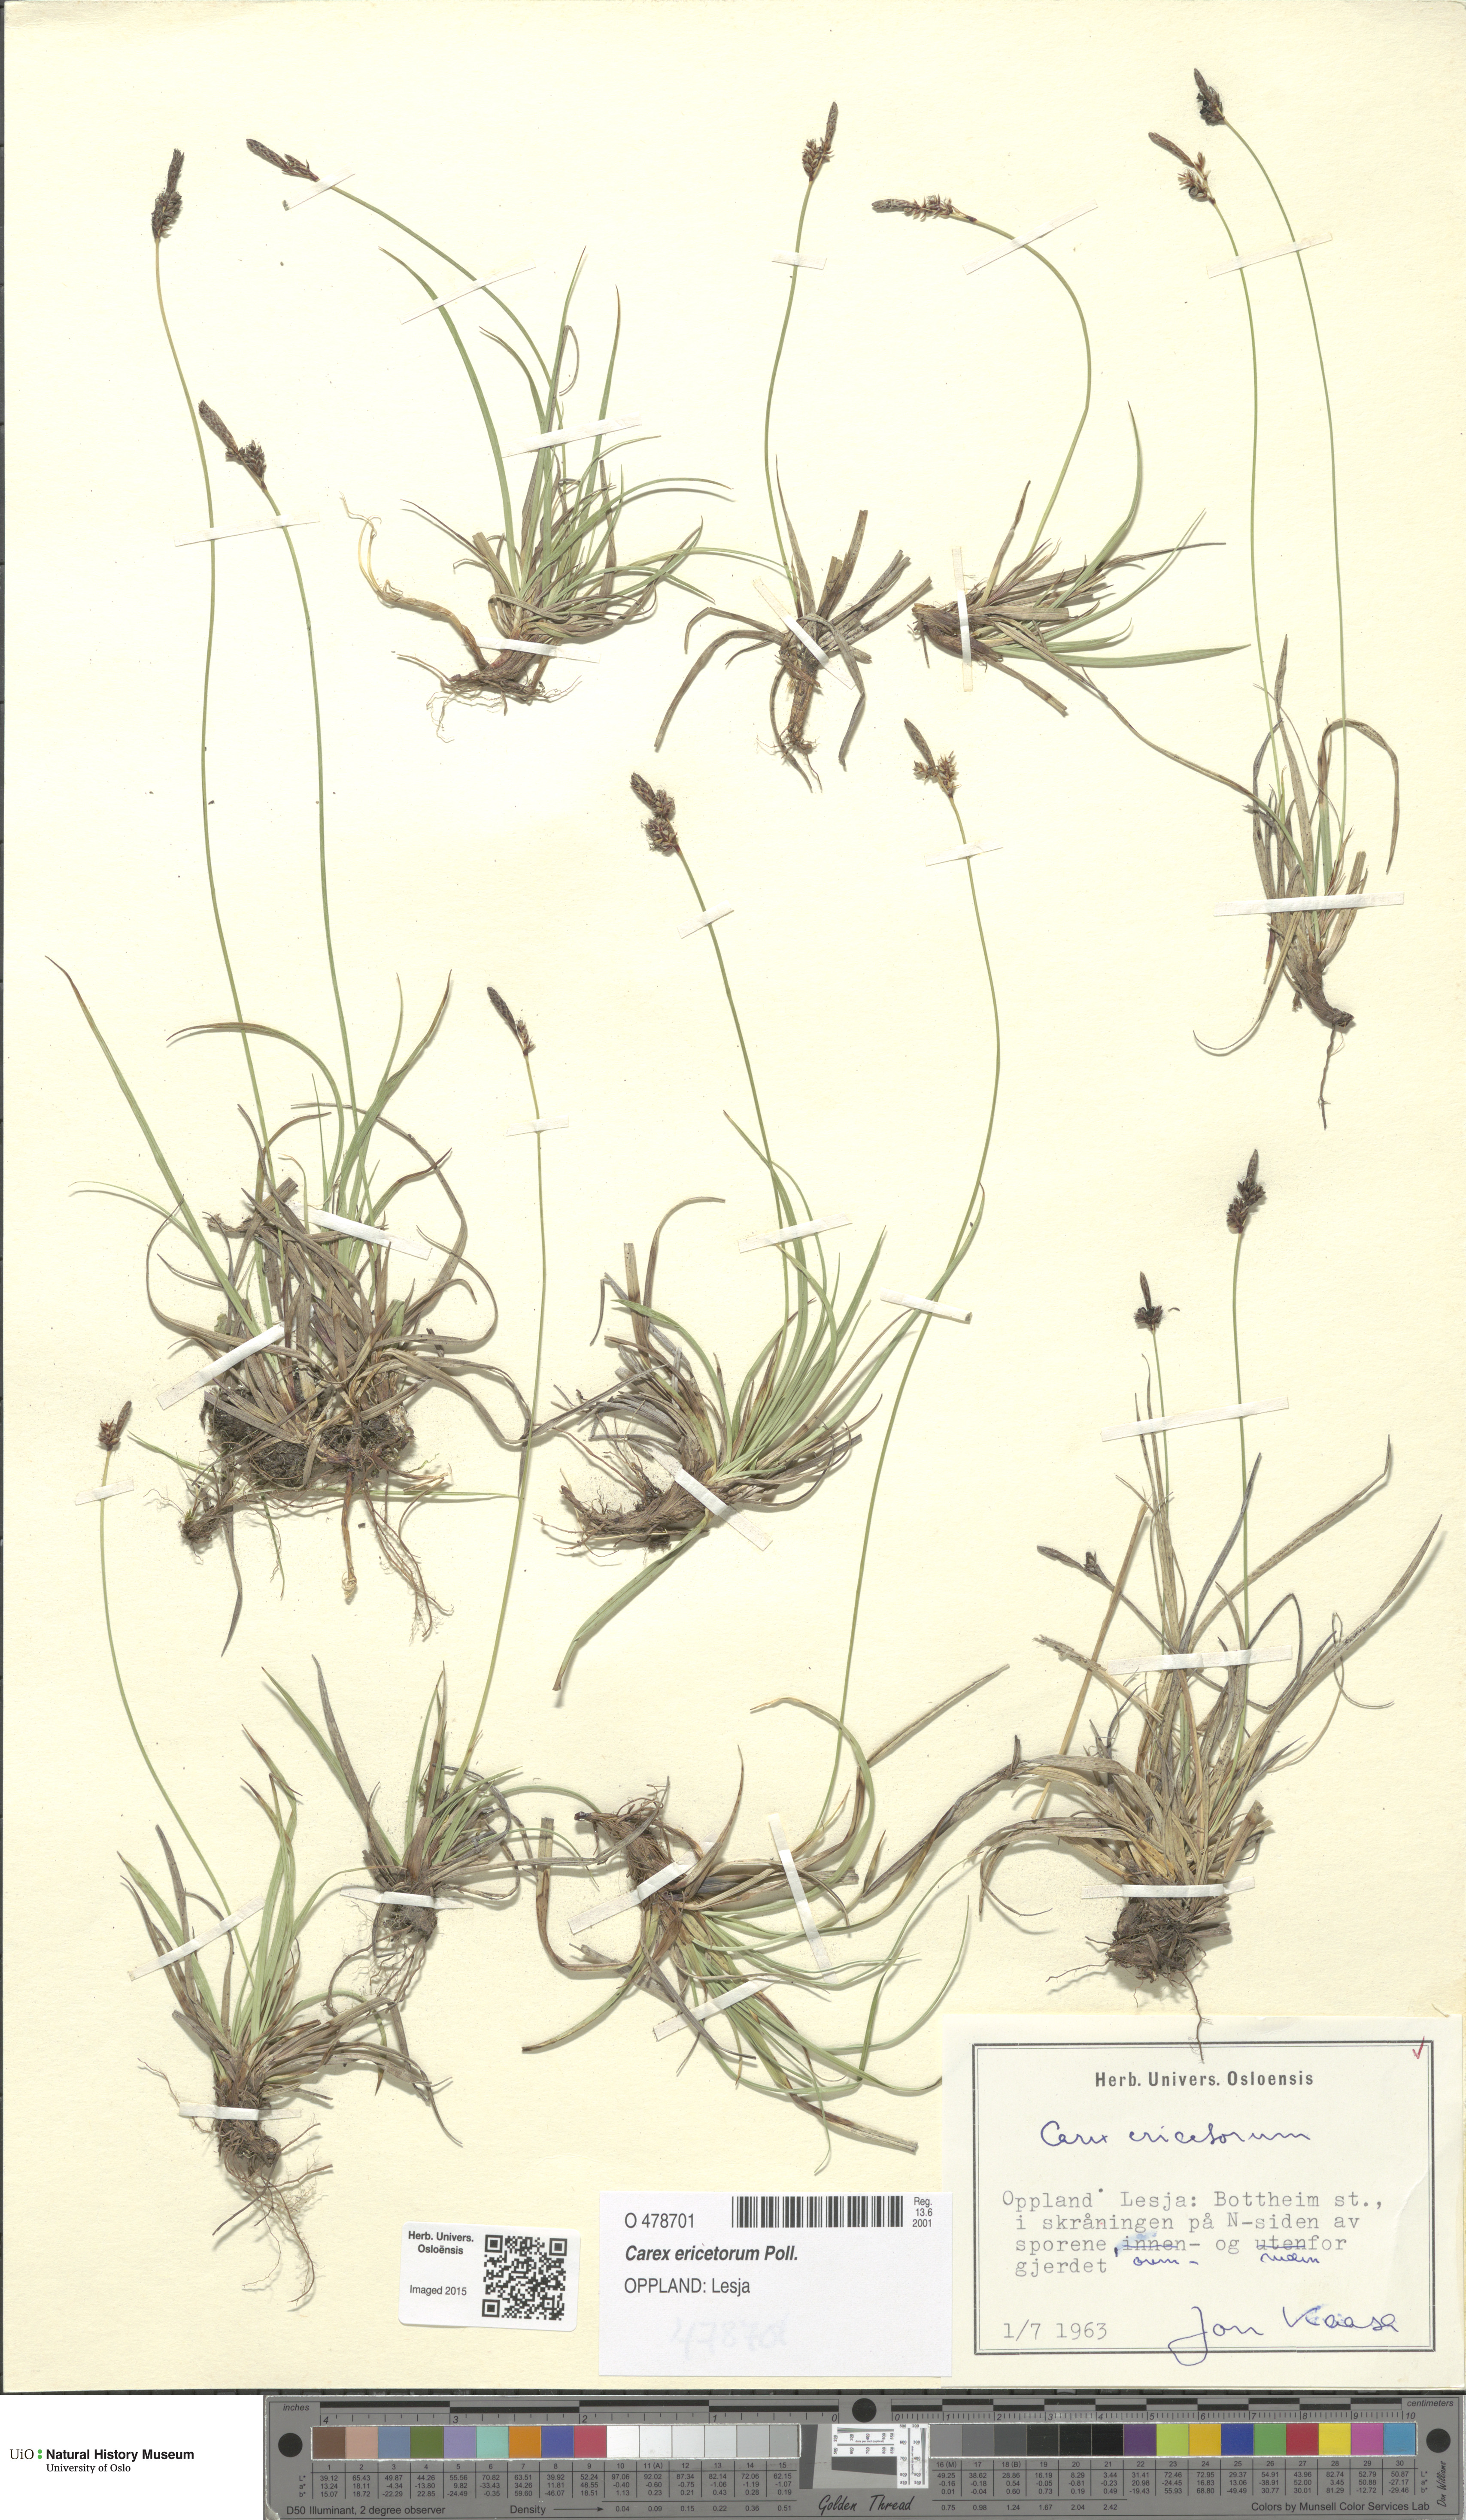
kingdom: Plantae
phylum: Tracheophyta
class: Liliopsida
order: Poales
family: Cyperaceae
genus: Carex
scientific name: Carex ericetorum
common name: Rare spring-sedge
